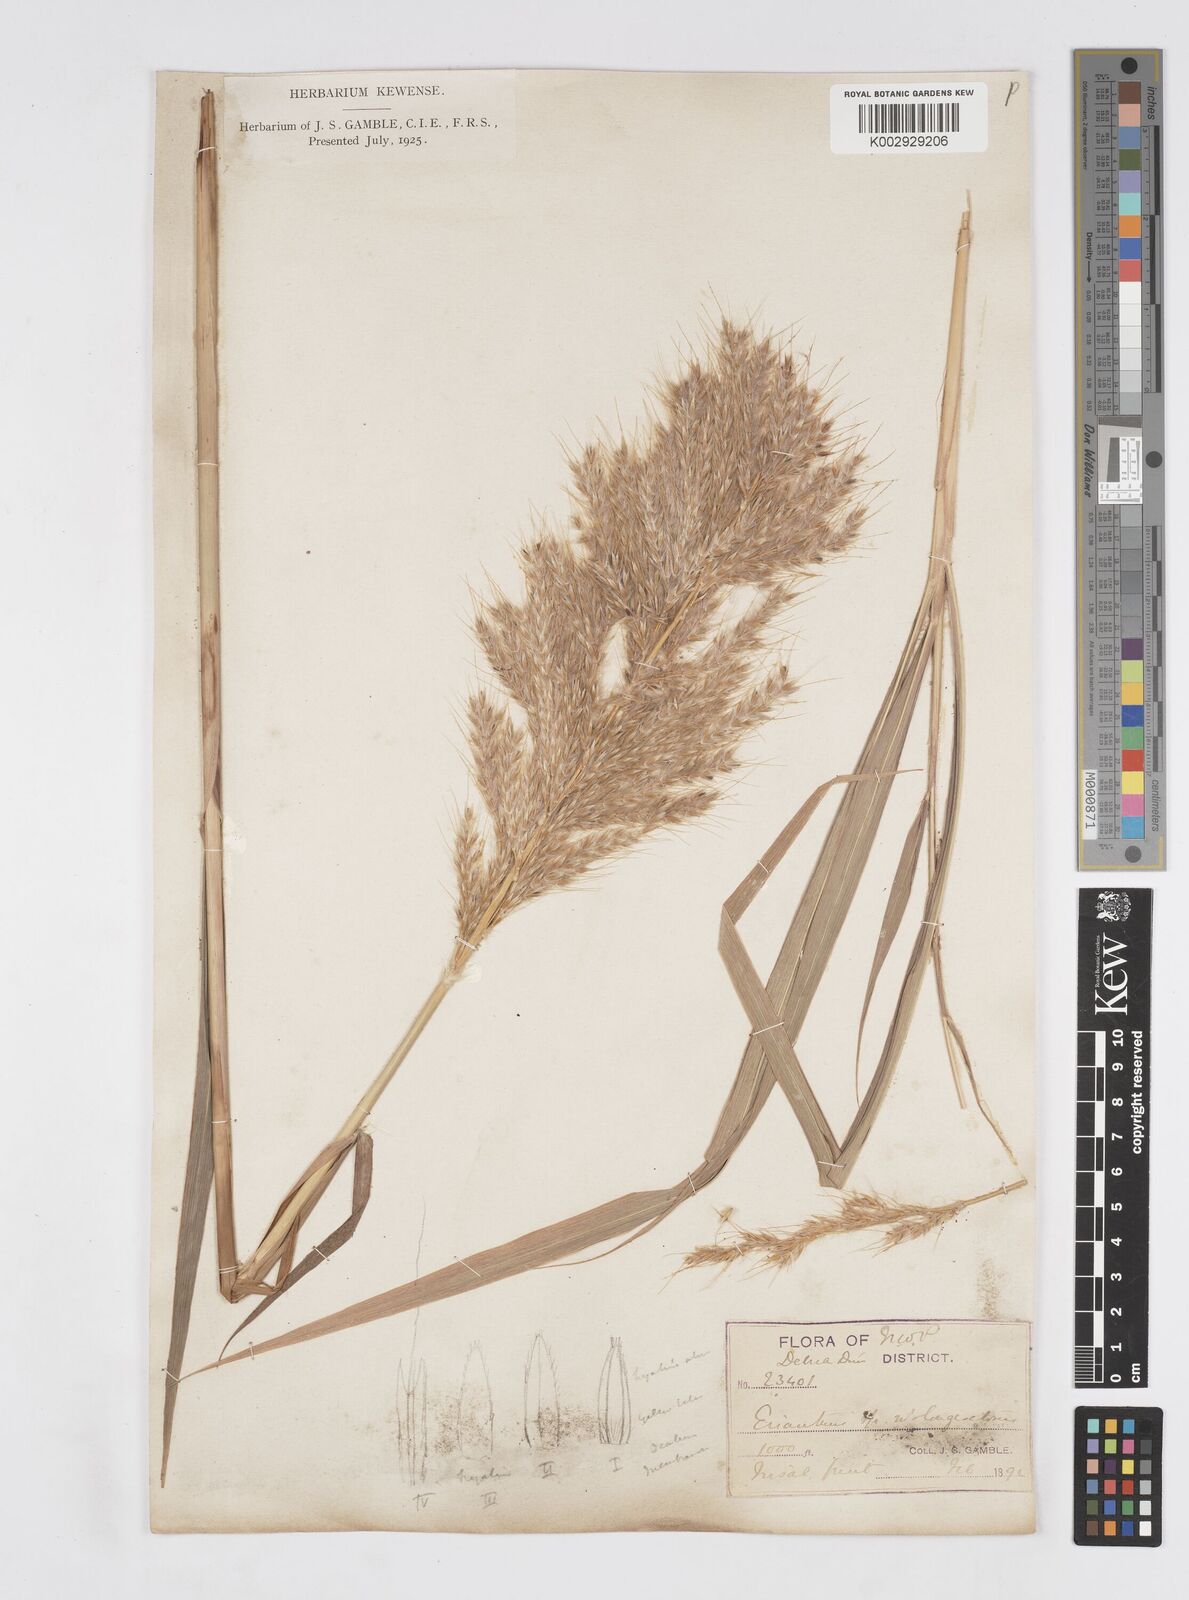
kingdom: Plantae
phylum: Tracheophyta
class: Liliopsida
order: Poales
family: Poaceae
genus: Melinis
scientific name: Melinis longiseta
